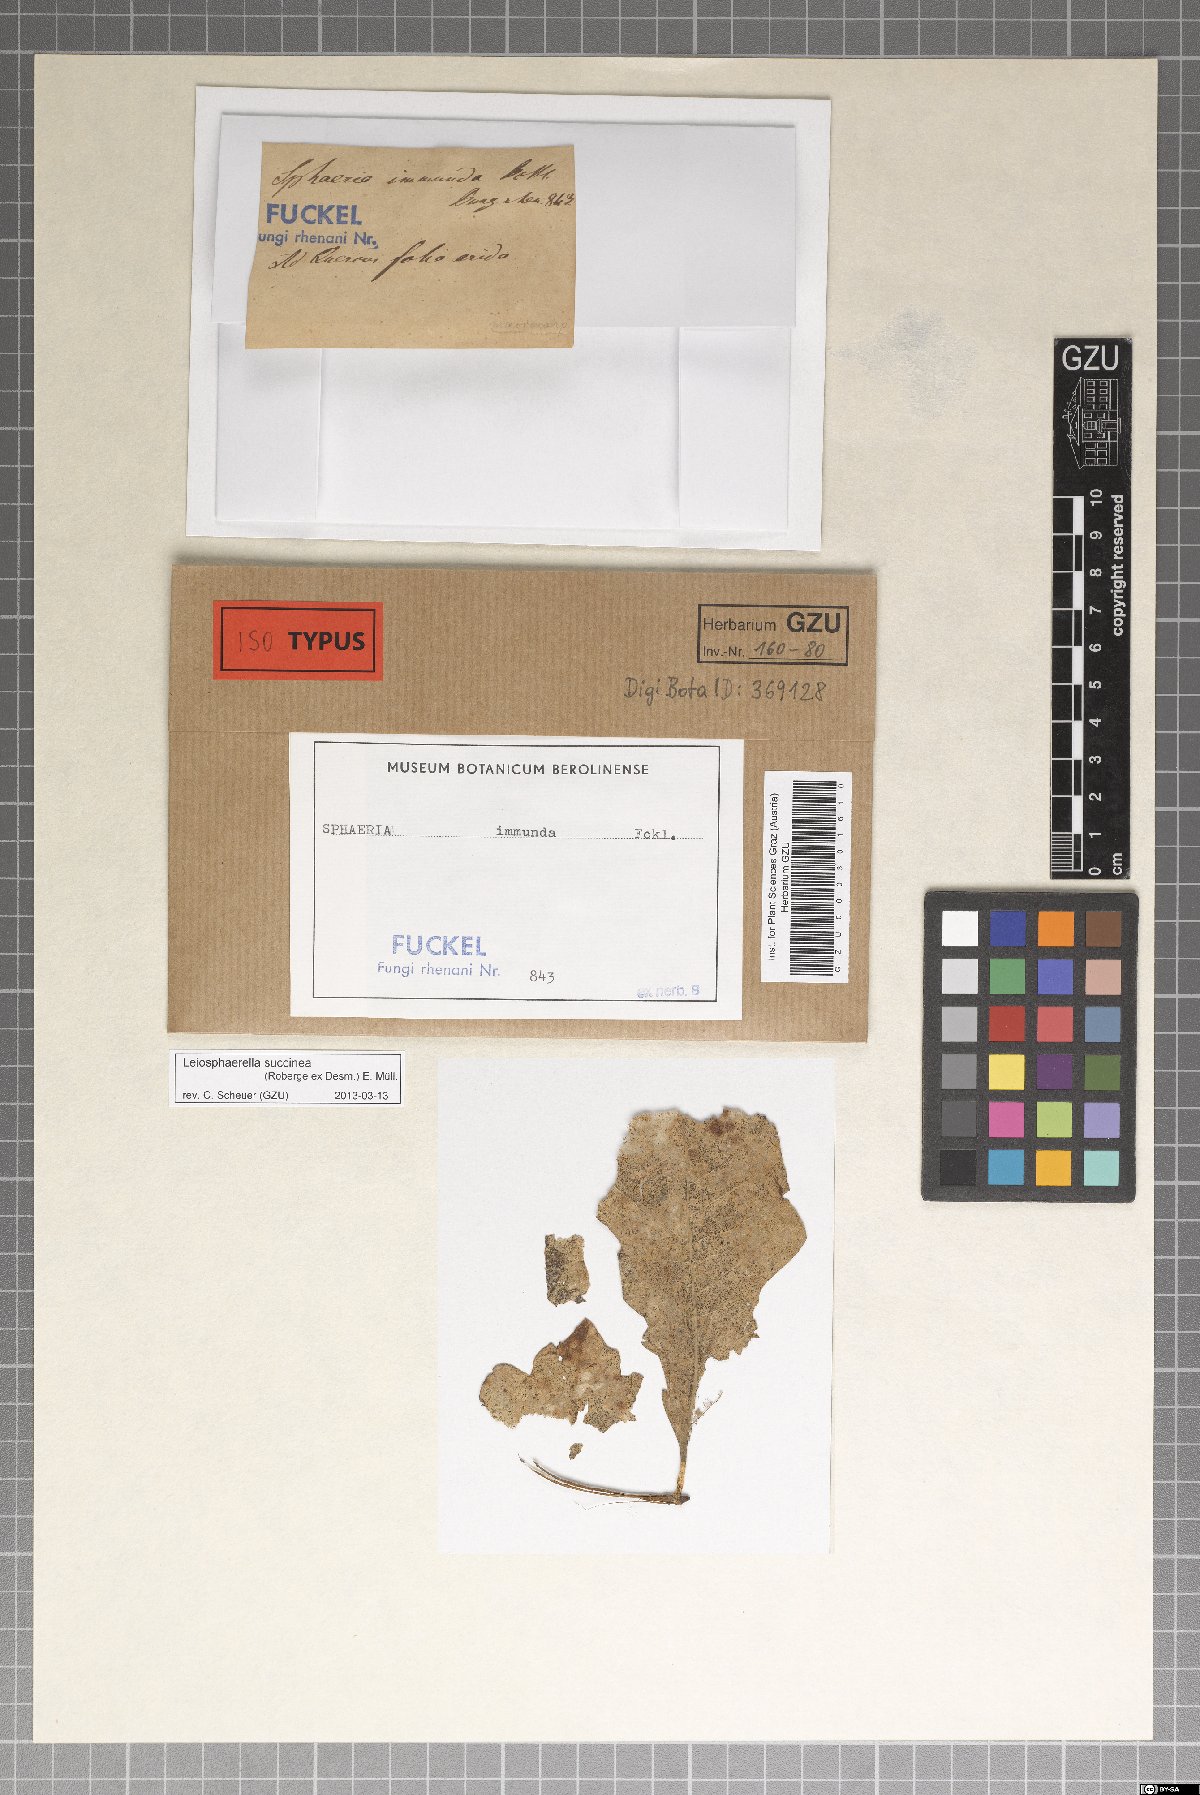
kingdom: Fungi
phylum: Ascomycota
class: Sordariomycetes
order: Xylariales
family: Pseudomassariaceae
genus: Leiosphaerella
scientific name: Leiosphaerella succinea
